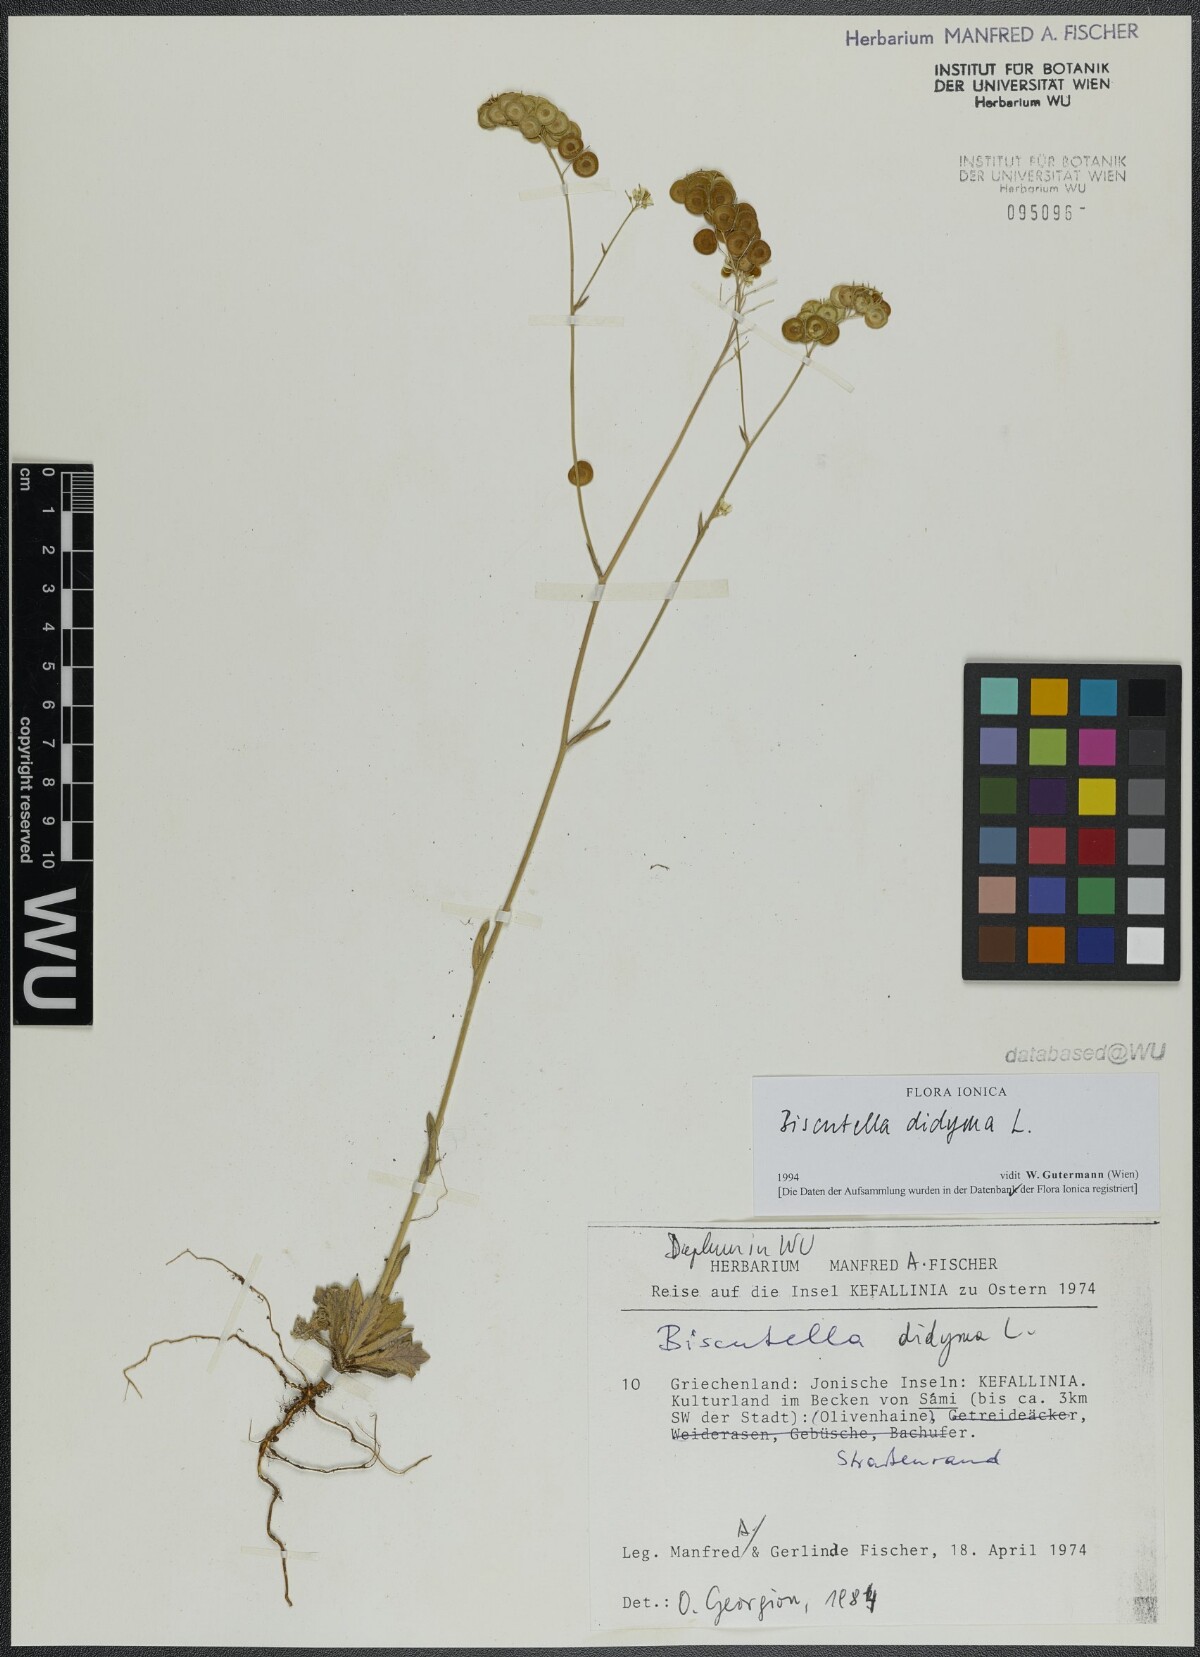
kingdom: Plantae
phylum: Tracheophyta
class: Magnoliopsida
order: Brassicales
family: Brassicaceae
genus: Biscutella
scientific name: Biscutella didyma
